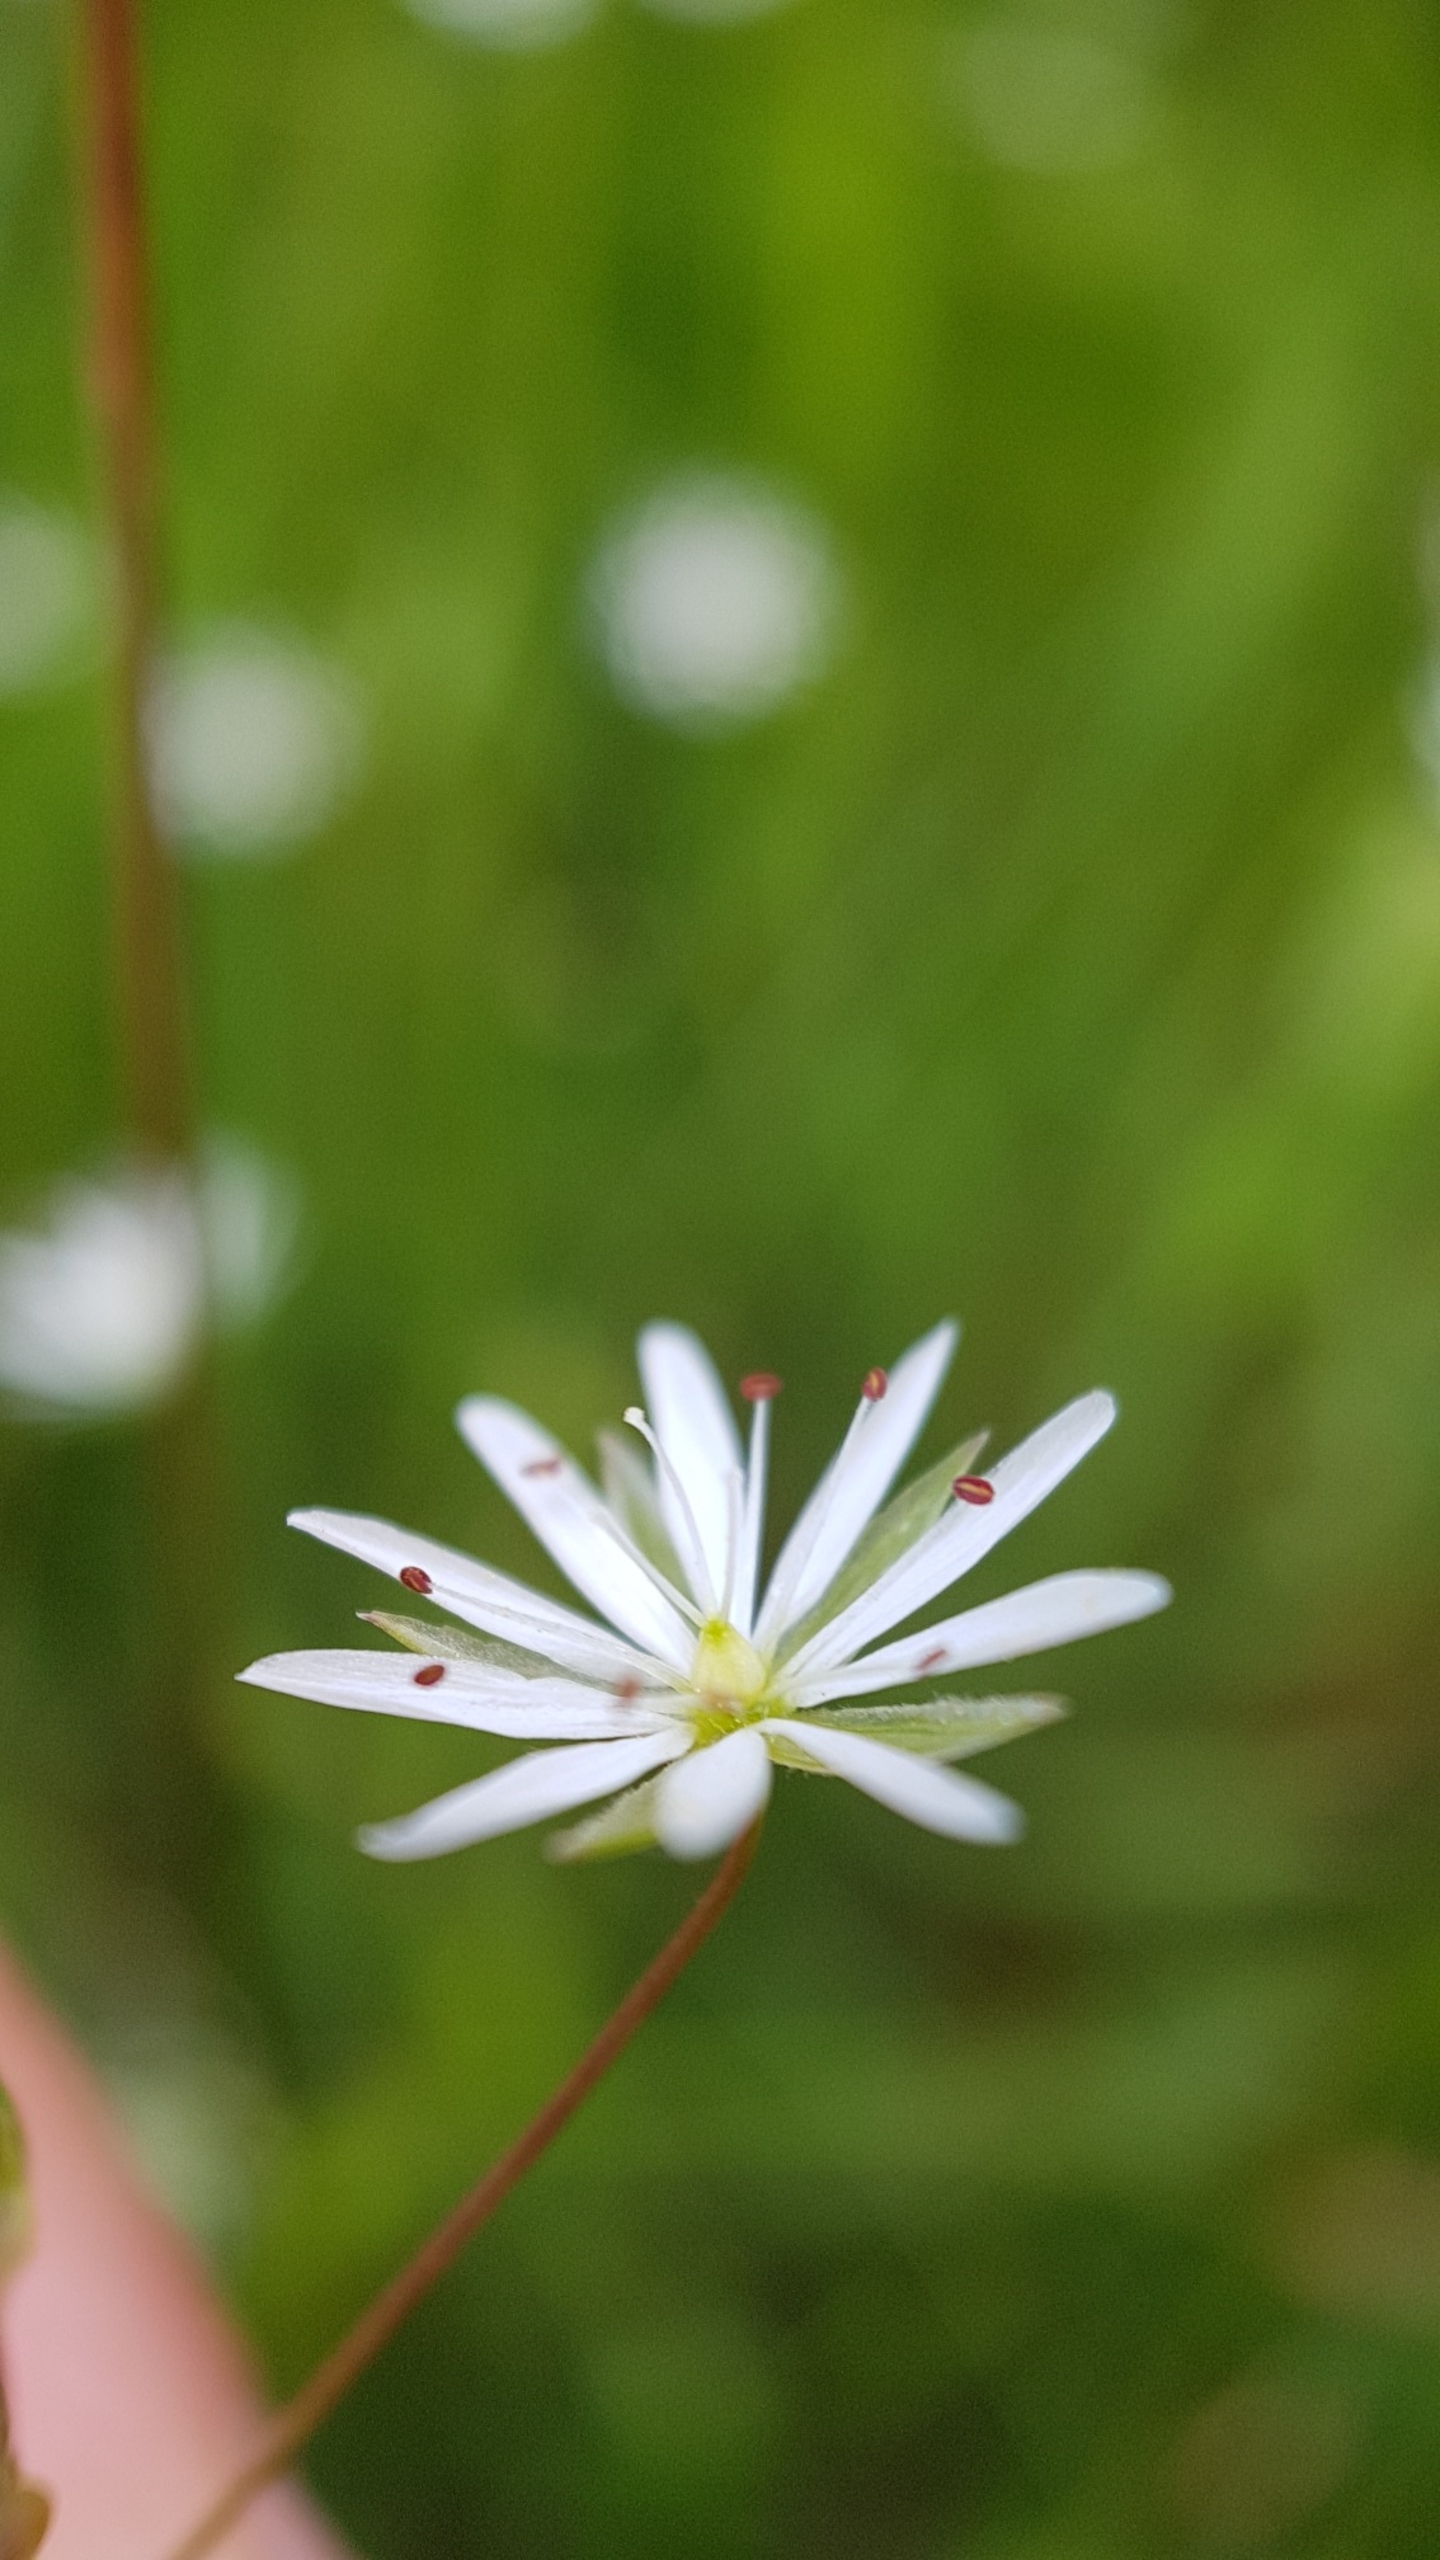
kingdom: Plantae
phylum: Tracheophyta
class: Magnoliopsida
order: Caryophyllales
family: Caryophyllaceae
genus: Stellaria
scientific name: Stellaria graminea
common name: Græsbladet fladstjerne
